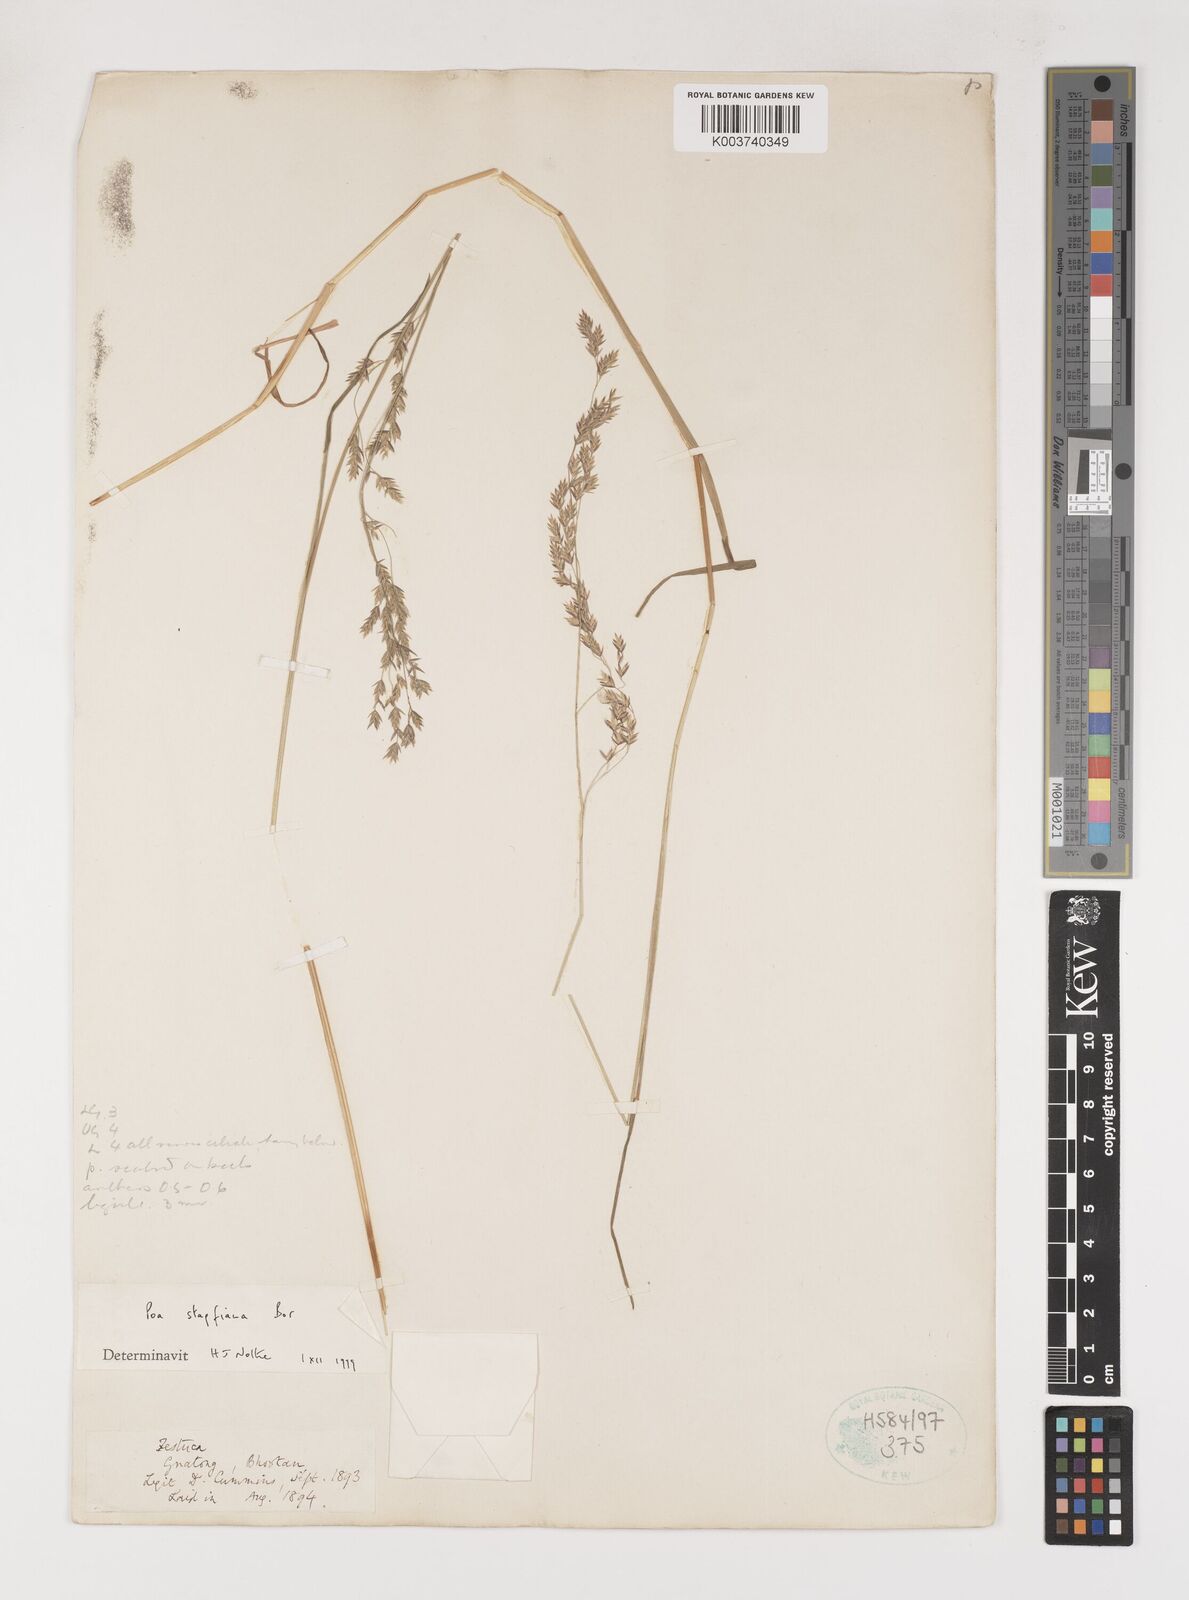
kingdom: Plantae
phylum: Tracheophyta
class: Liliopsida
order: Poales
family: Poaceae
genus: Poa
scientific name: Poa stapfiana
